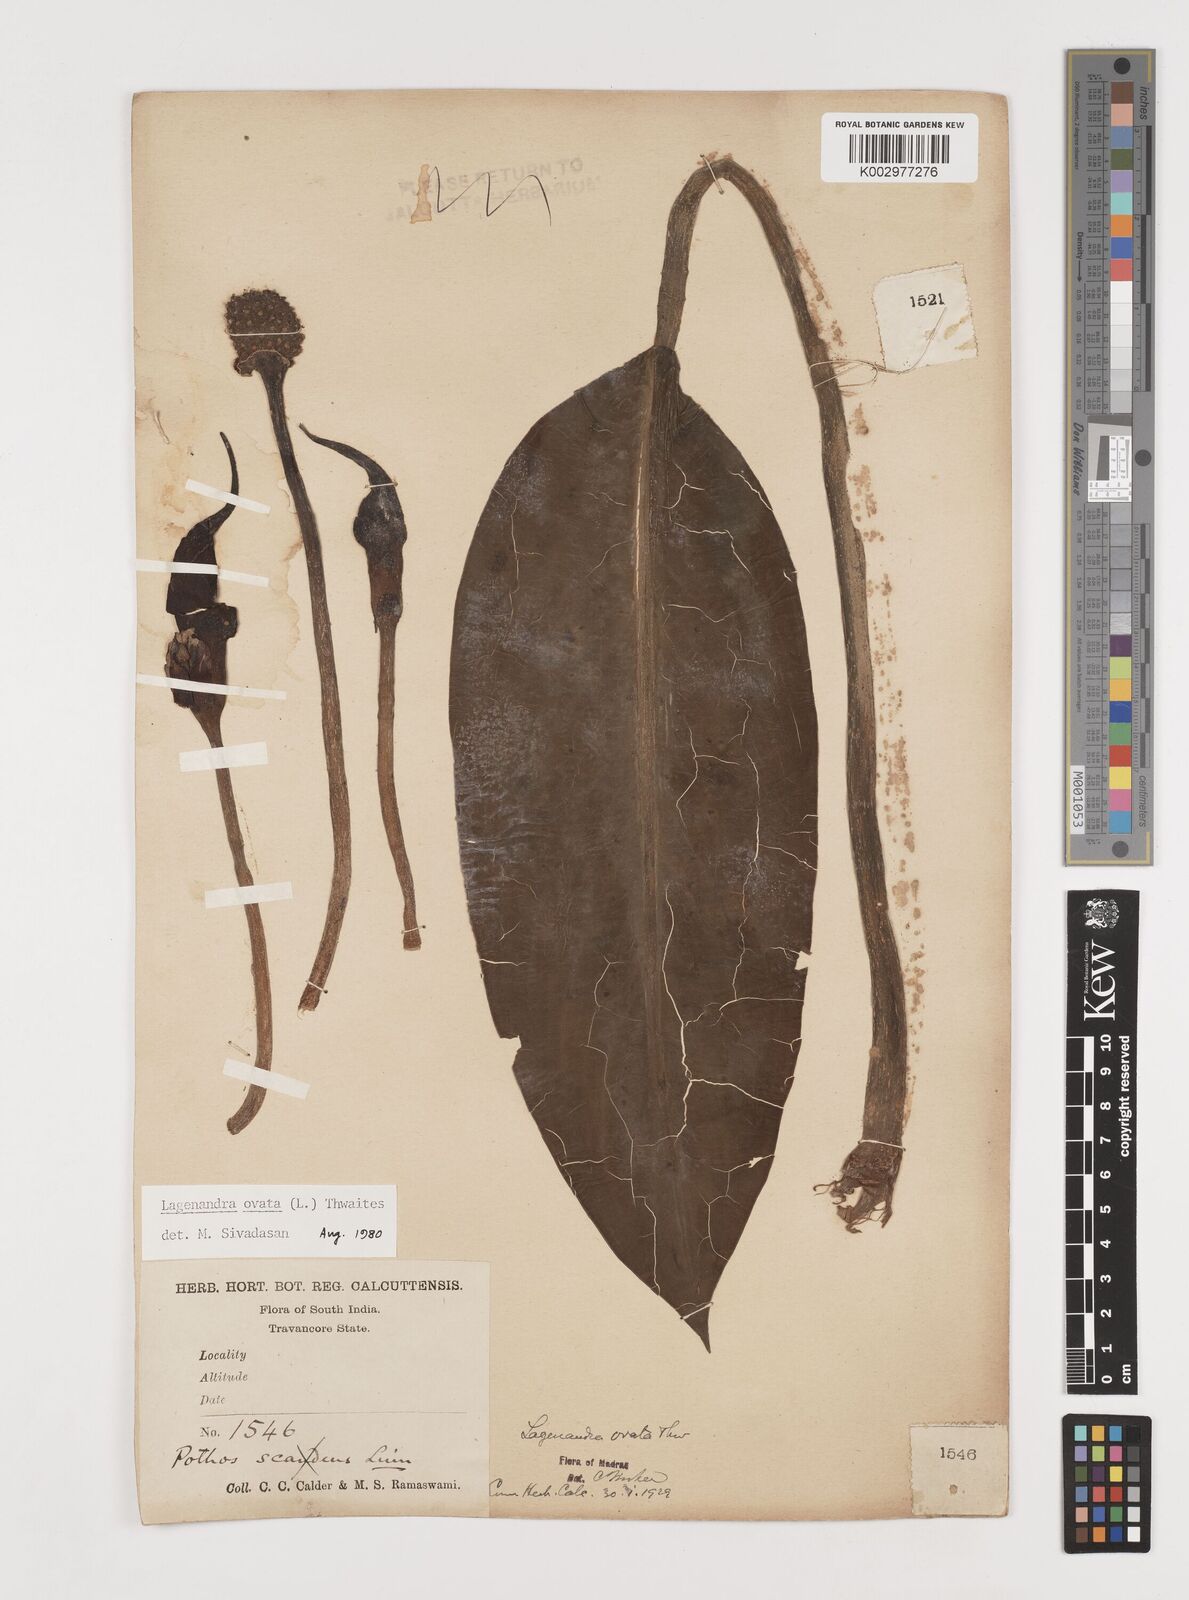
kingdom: Plantae
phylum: Tracheophyta
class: Liliopsida
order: Alismatales
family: Araceae
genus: Lagenandra
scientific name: Lagenandra ovata
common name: Malayan sword
